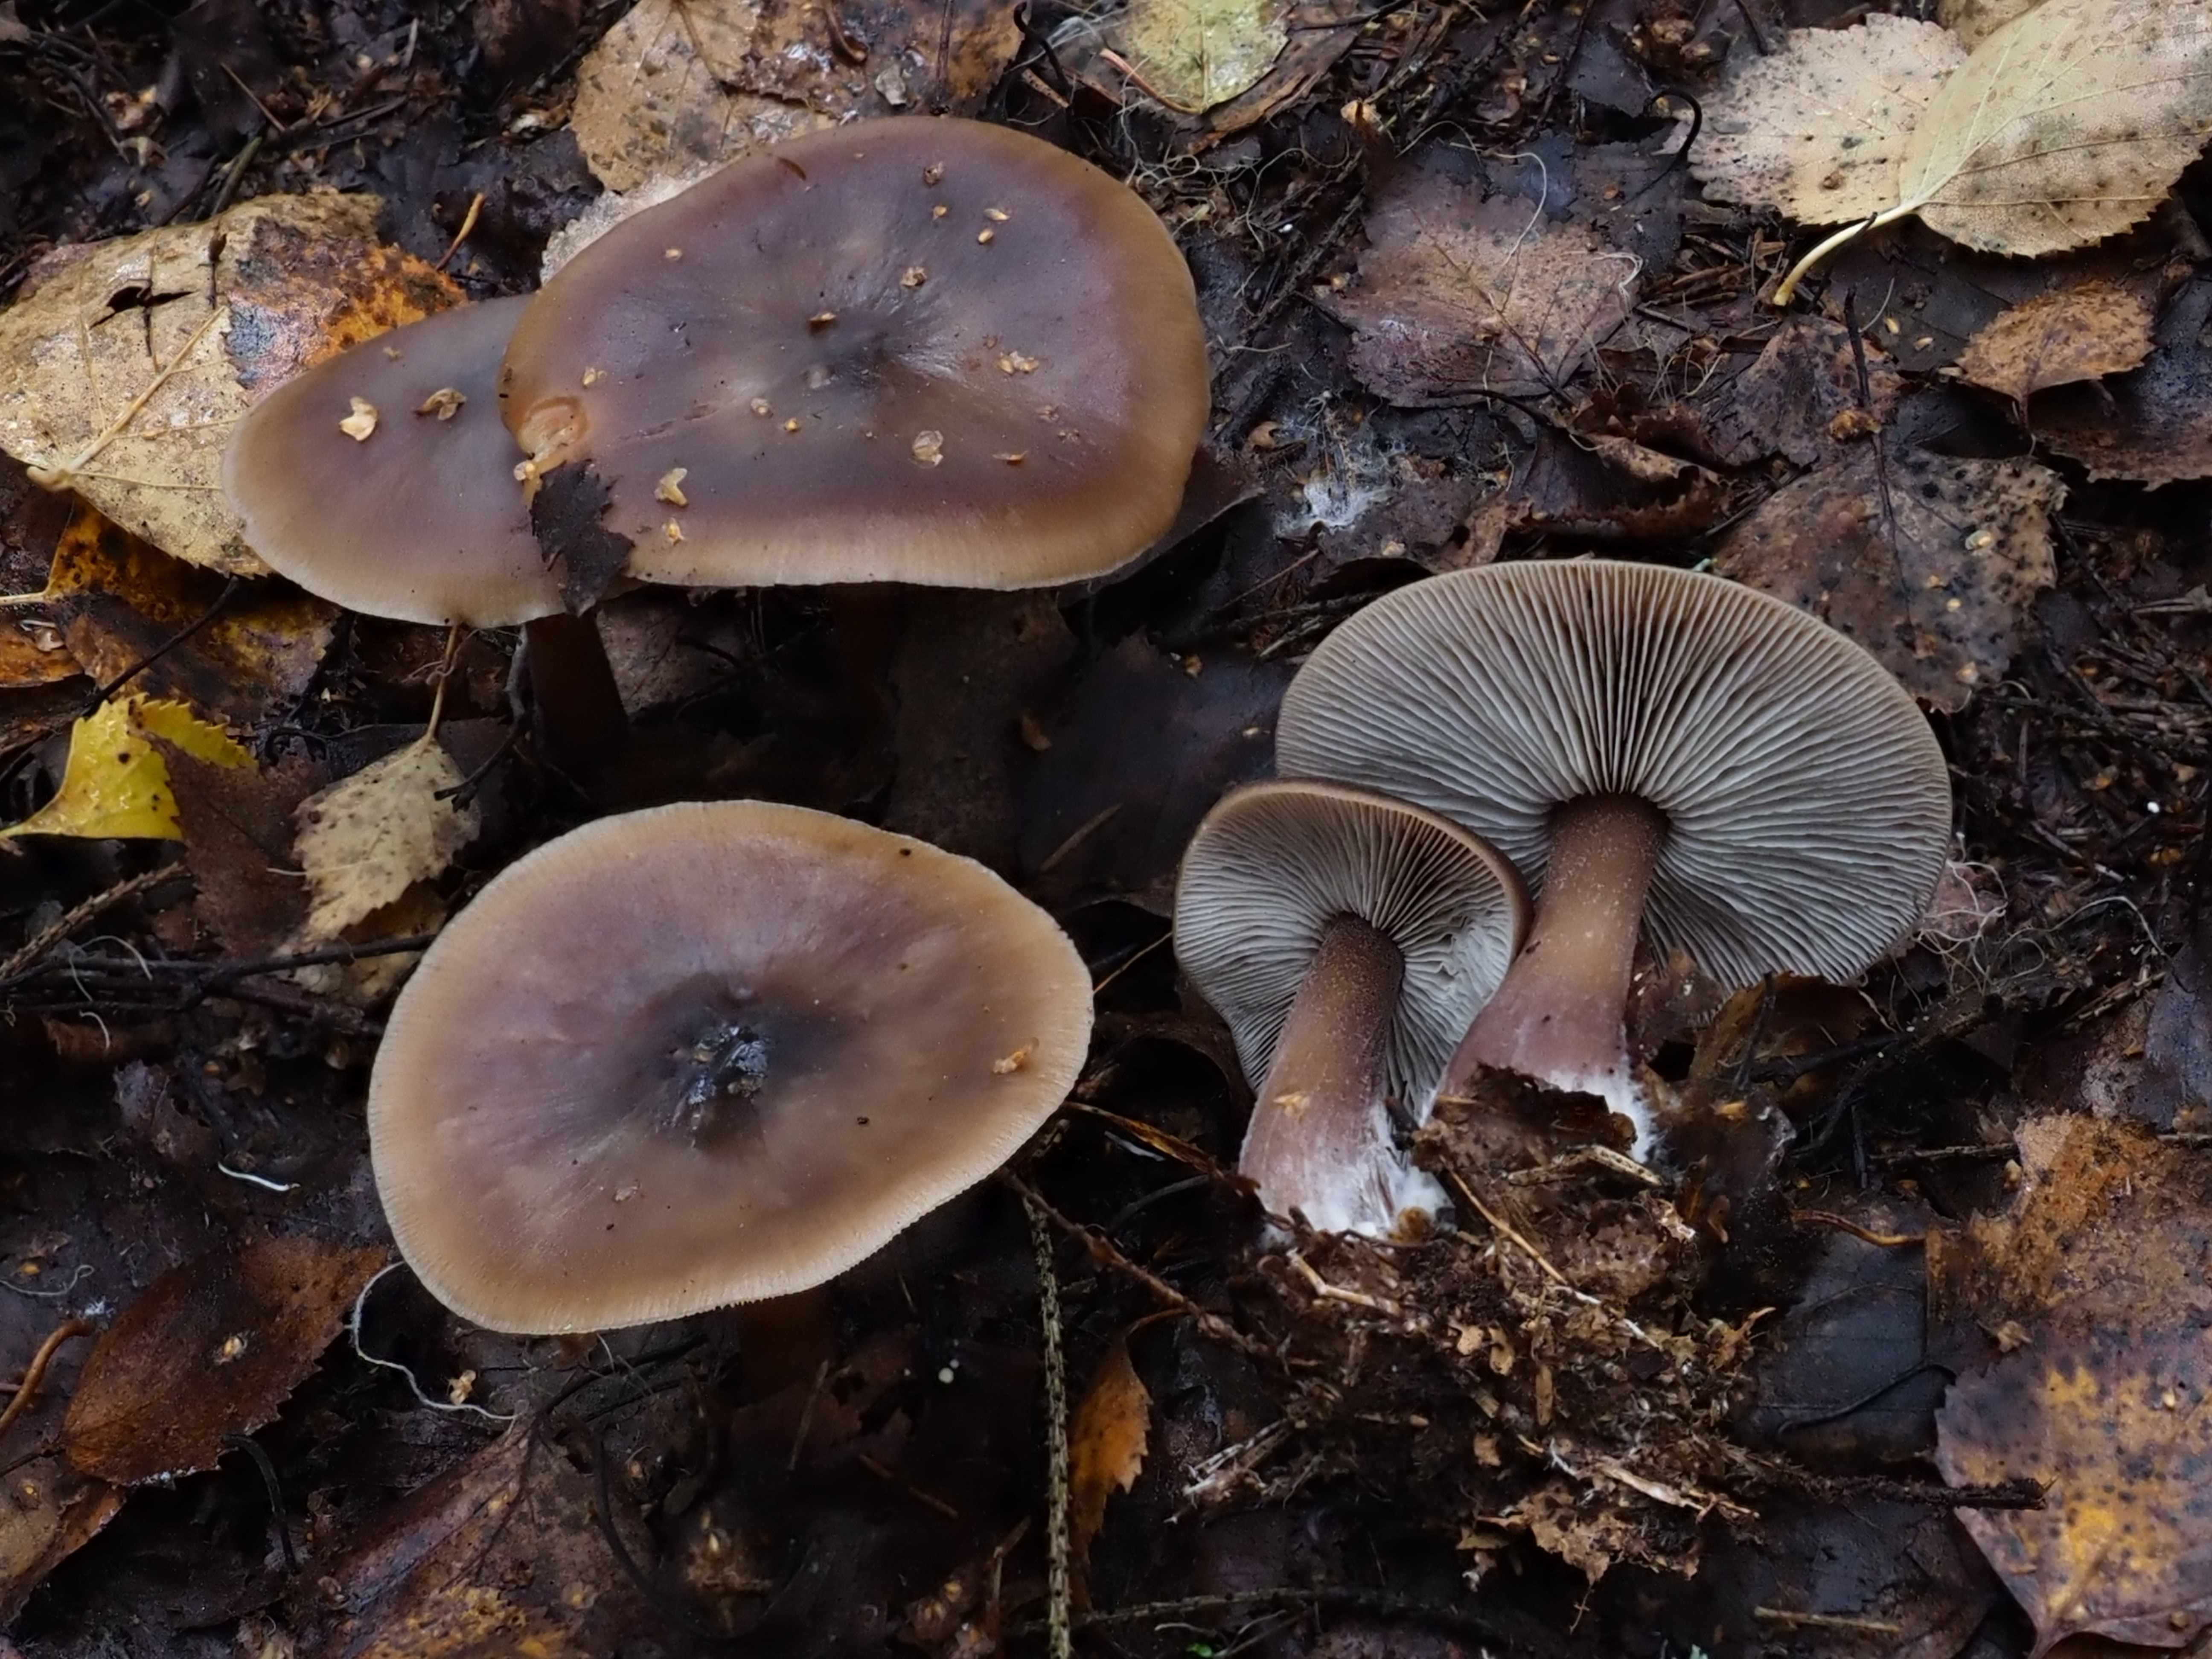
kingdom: Fungi
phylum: Basidiomycota
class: Agaricomycetes
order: Agaricales
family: Omphalotaceae
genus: Rhodocollybia
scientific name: Rhodocollybia asema
